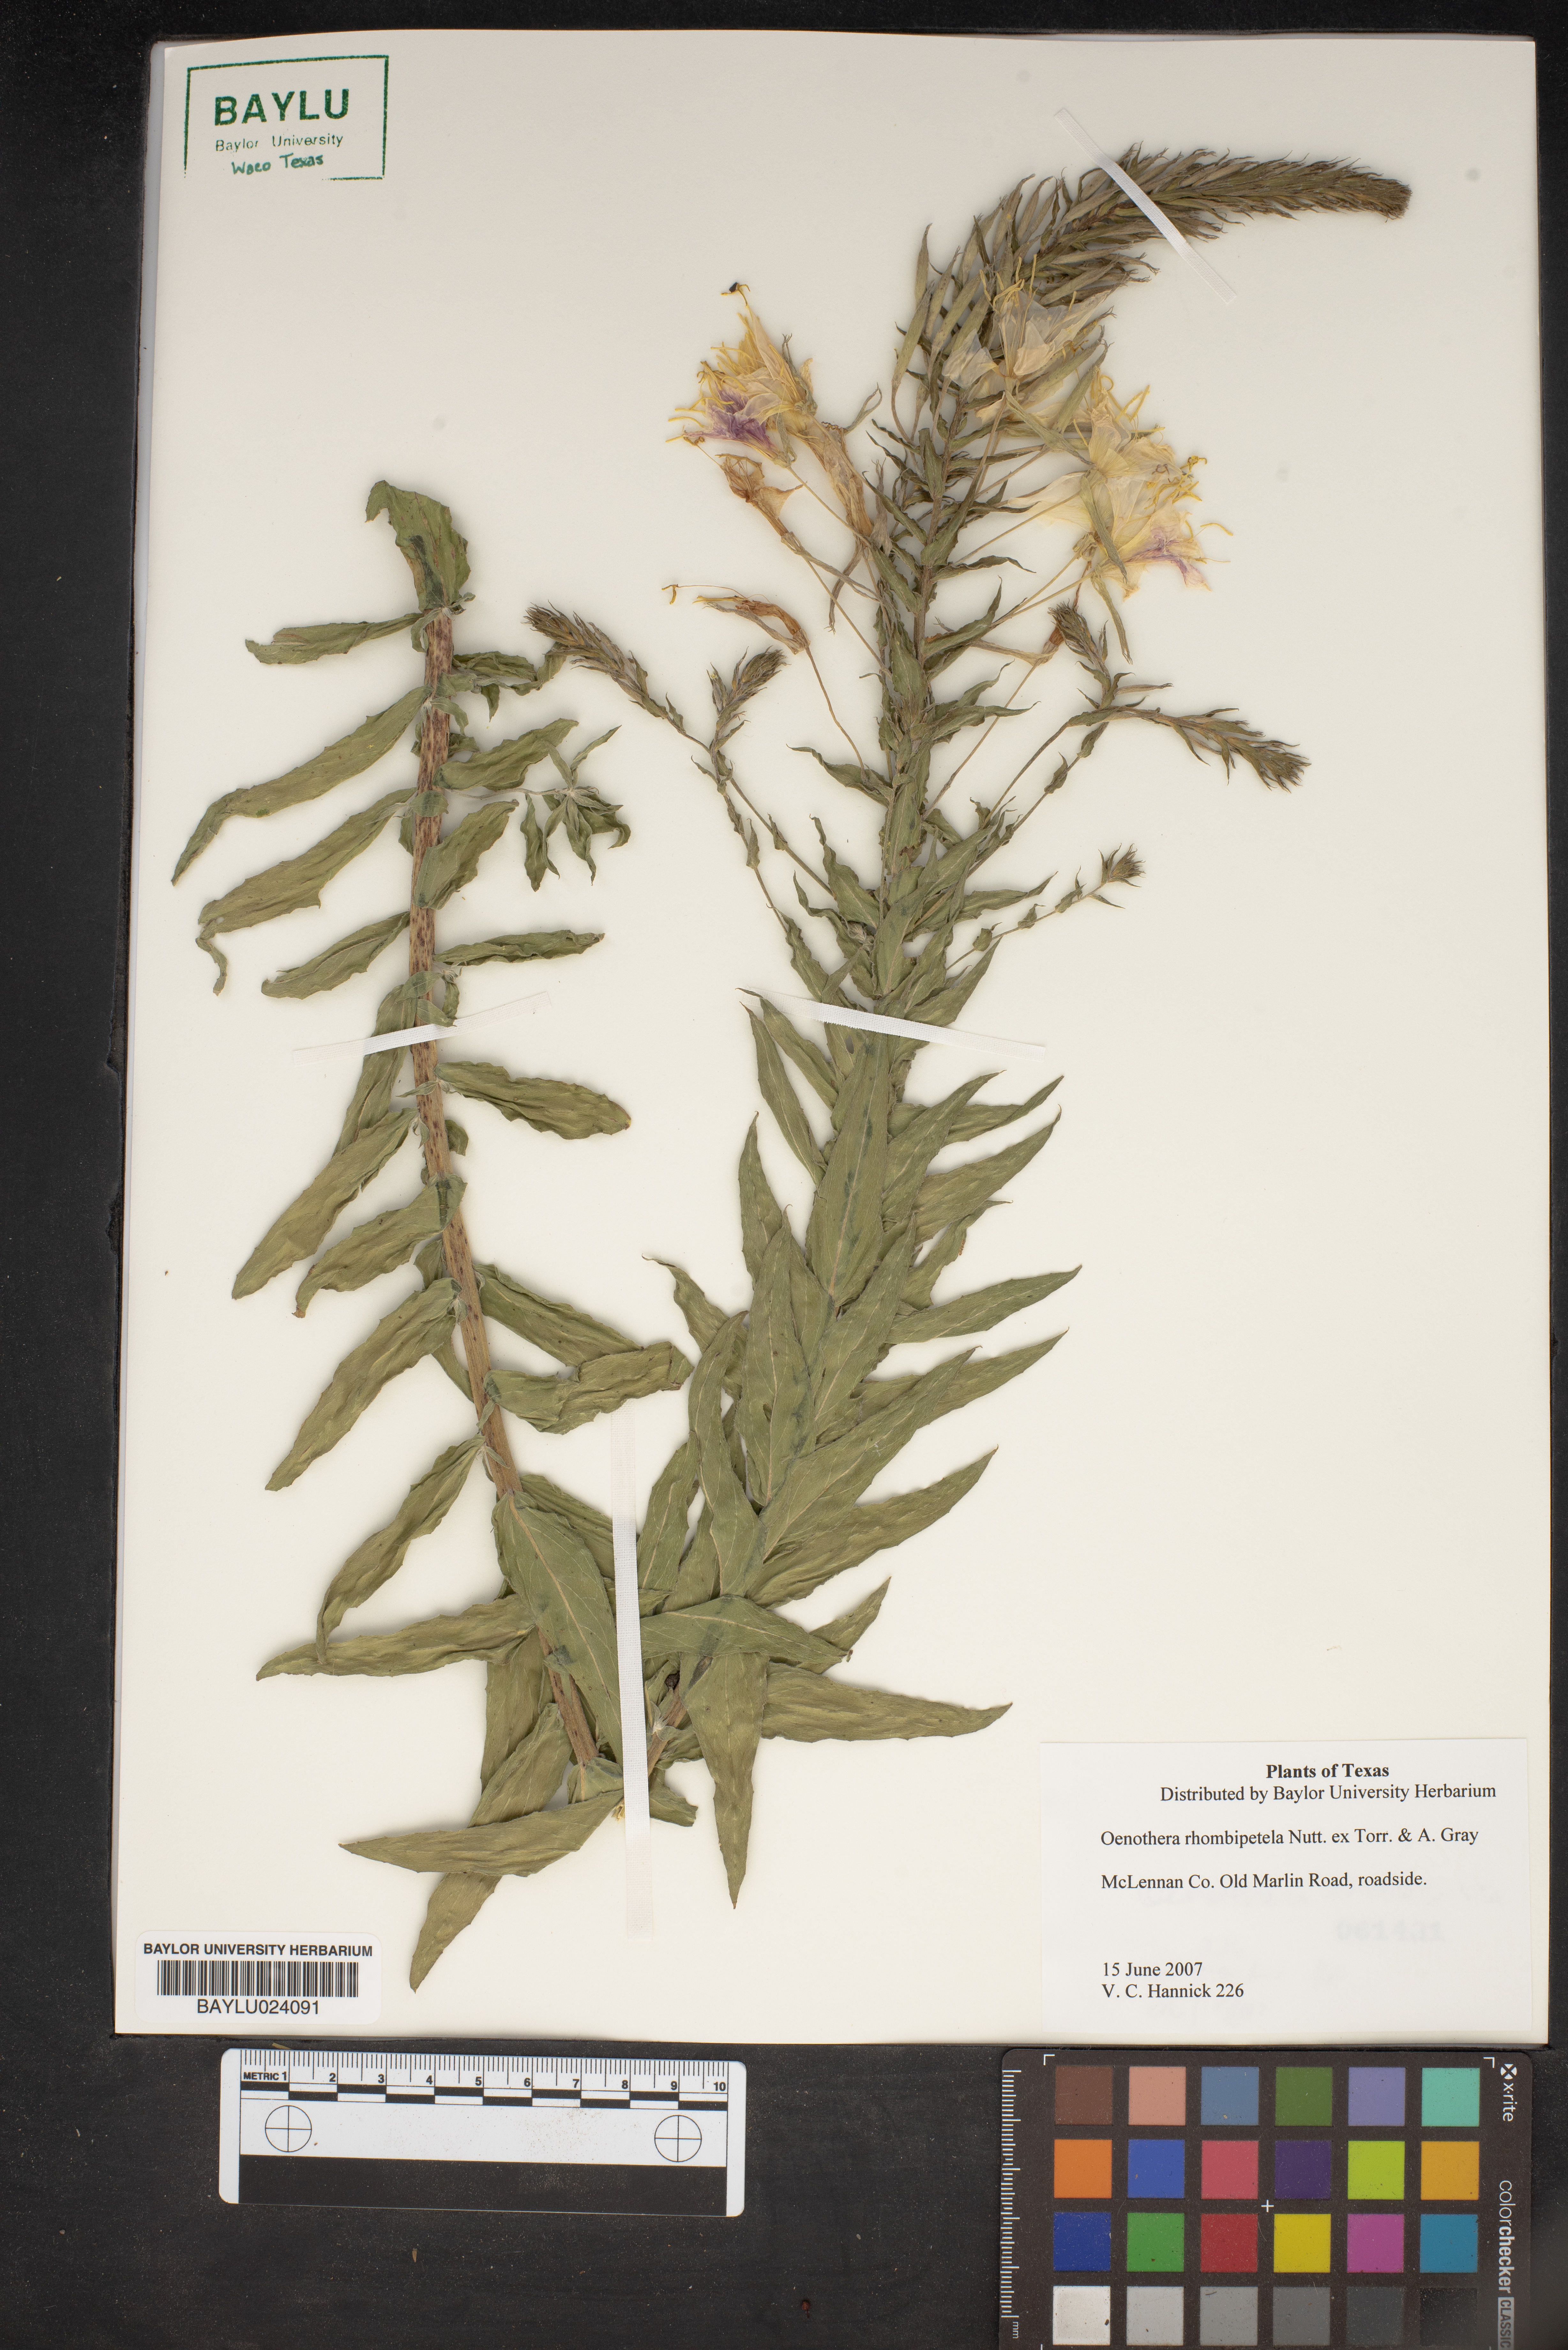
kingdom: Plantae
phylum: Tracheophyta
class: Magnoliopsida
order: Myrtales
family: Onagraceae
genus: Oenothera
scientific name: Oenothera rhombipetala
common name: Four-points evening-primrose
